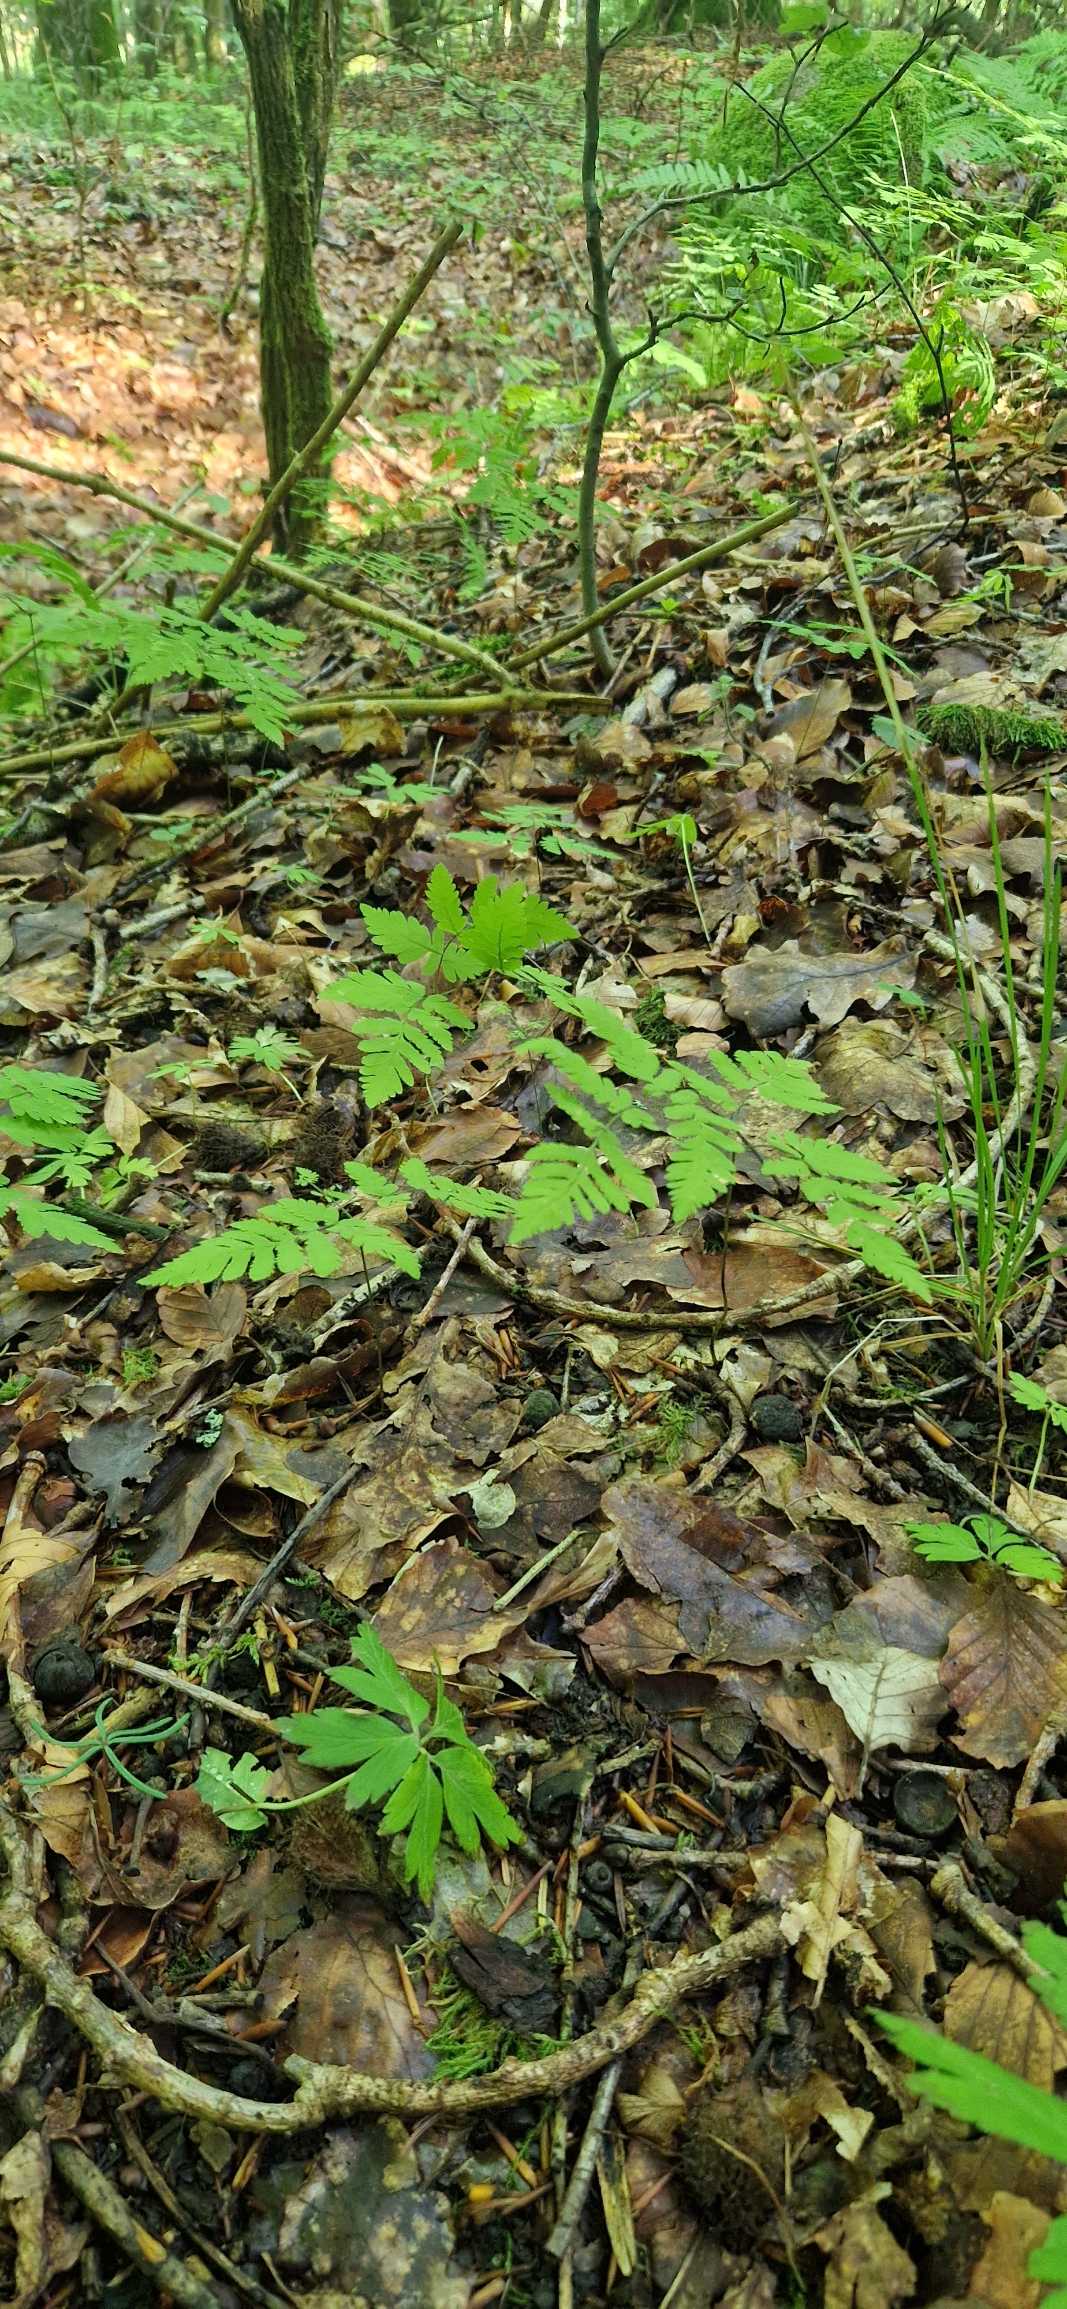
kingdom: Plantae
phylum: Tracheophyta
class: Polypodiopsida
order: Polypodiales
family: Cystopteridaceae
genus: Gymnocarpium
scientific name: Gymnocarpium dryopteris
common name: Tredelt egebregne
